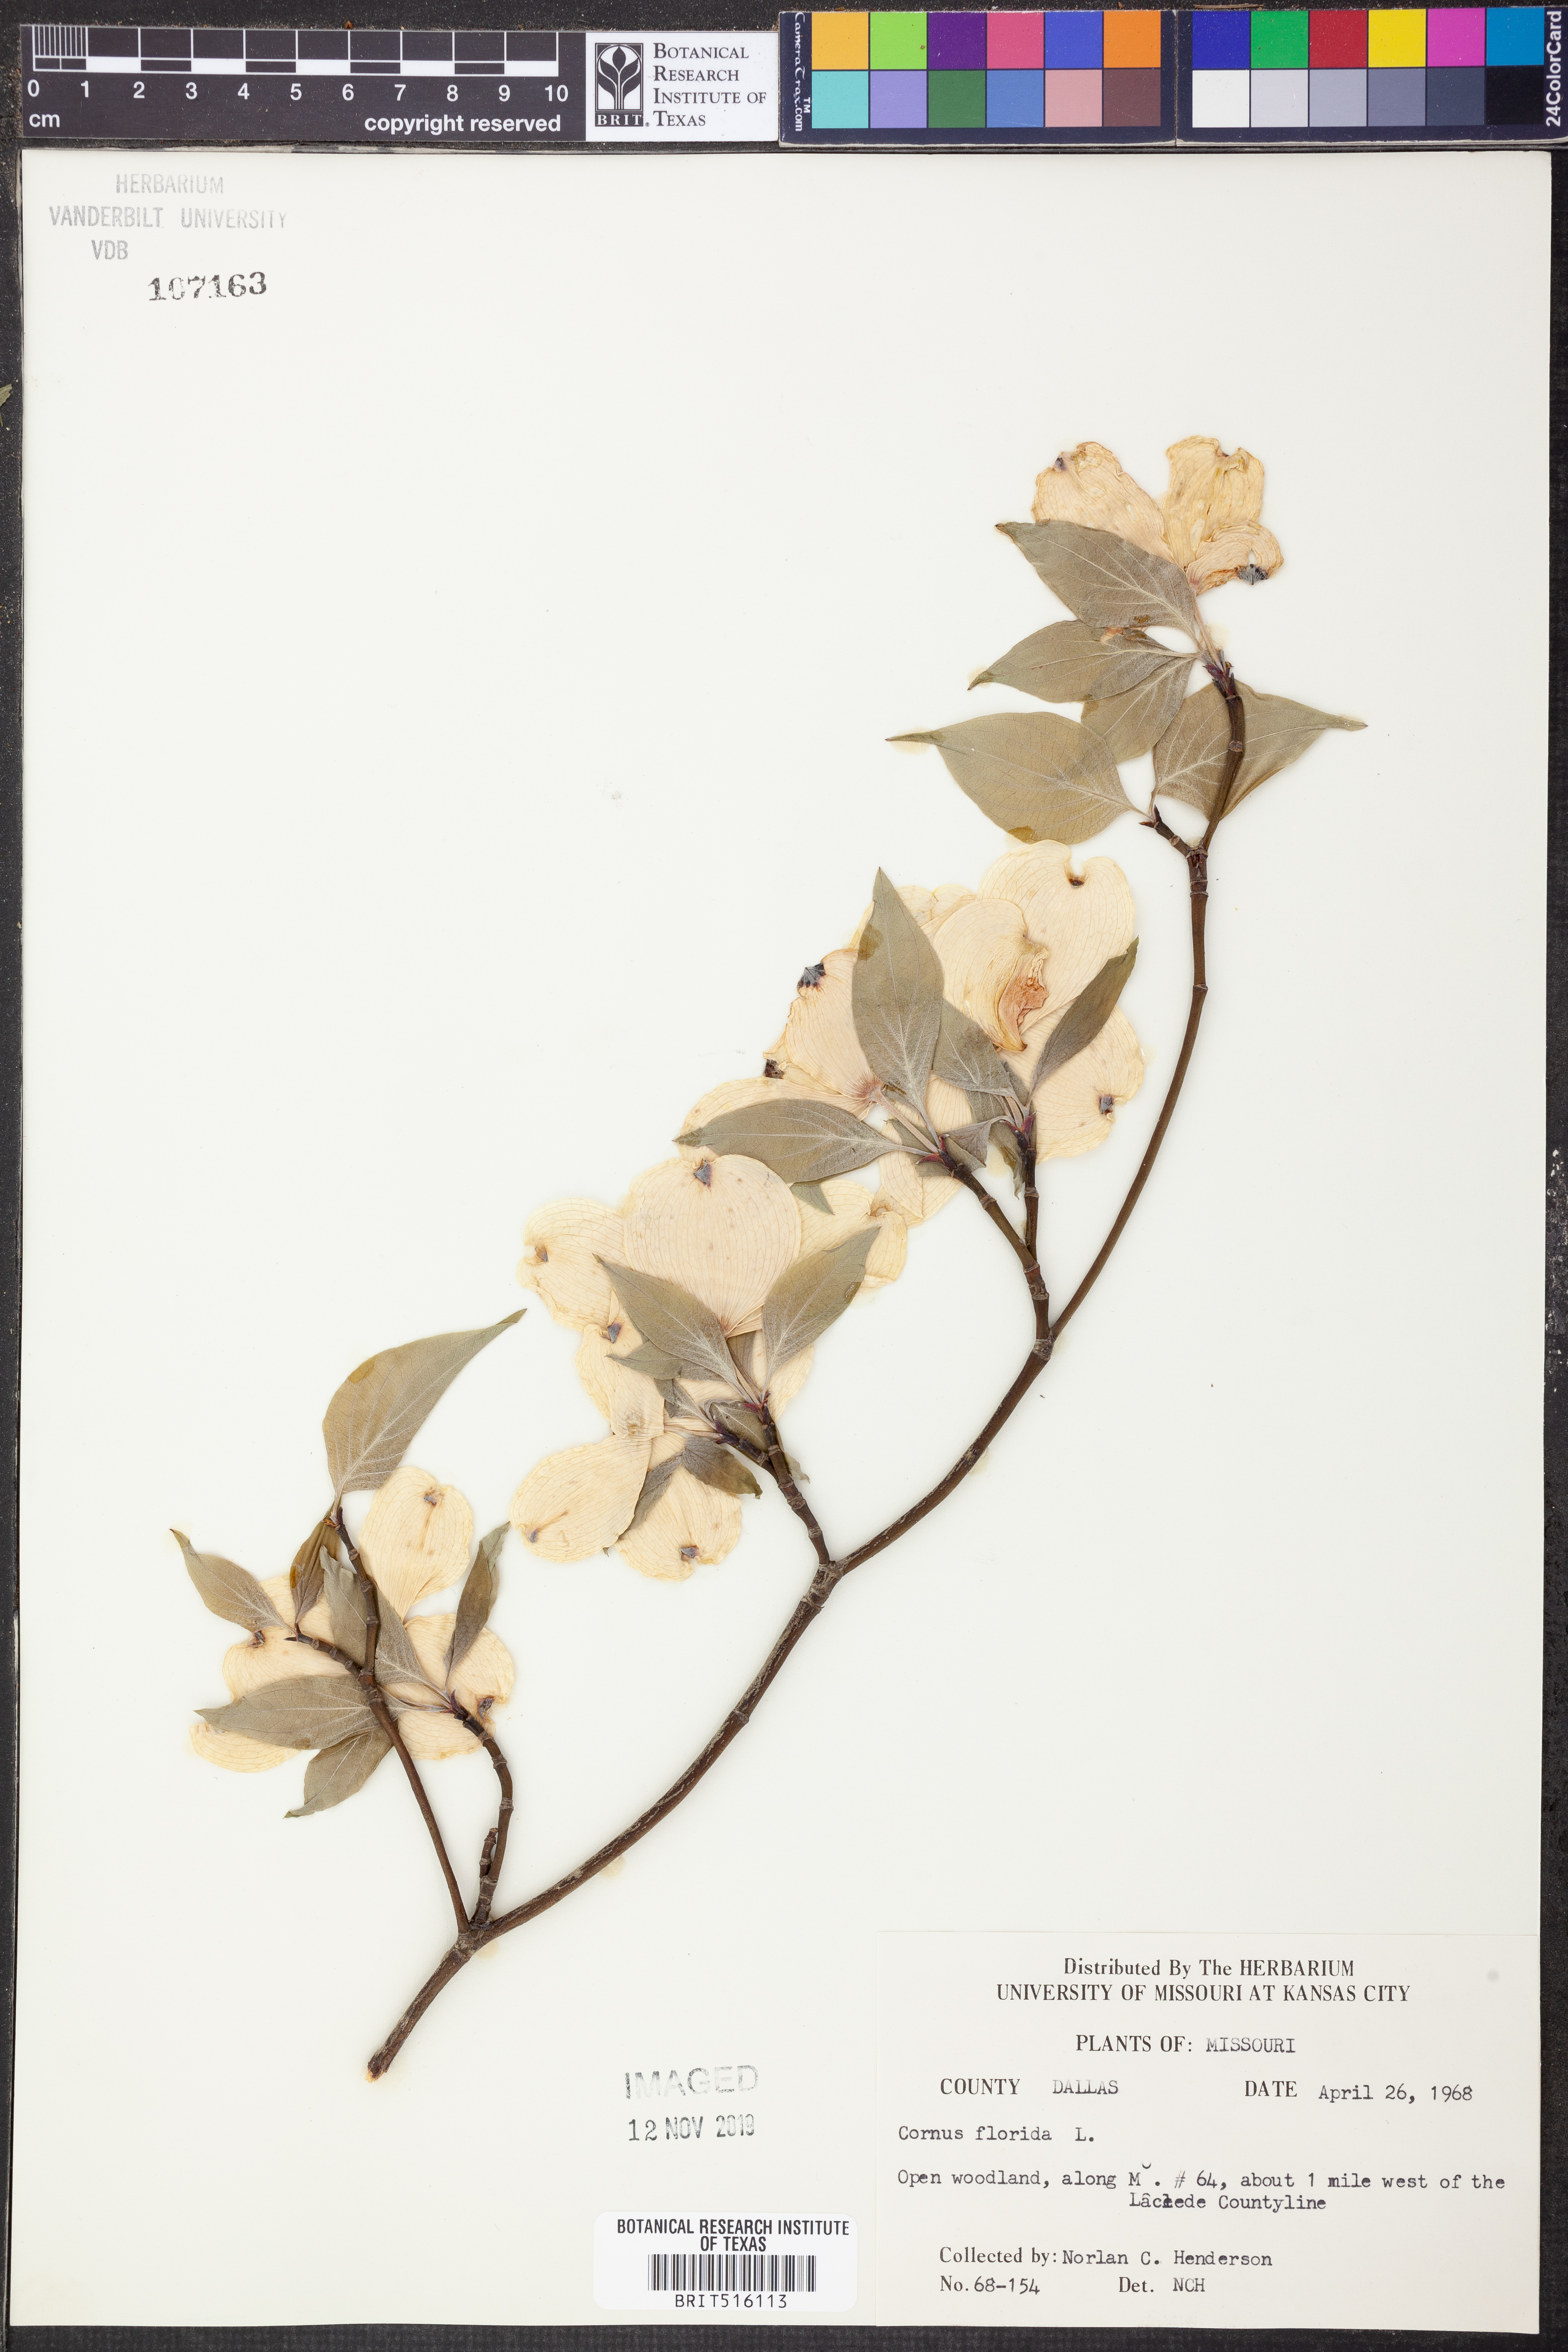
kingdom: Plantae
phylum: Tracheophyta
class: Magnoliopsida
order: Cornales
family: Cornaceae
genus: Cornus
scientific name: Cornus florida
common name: Flowering dogwood
